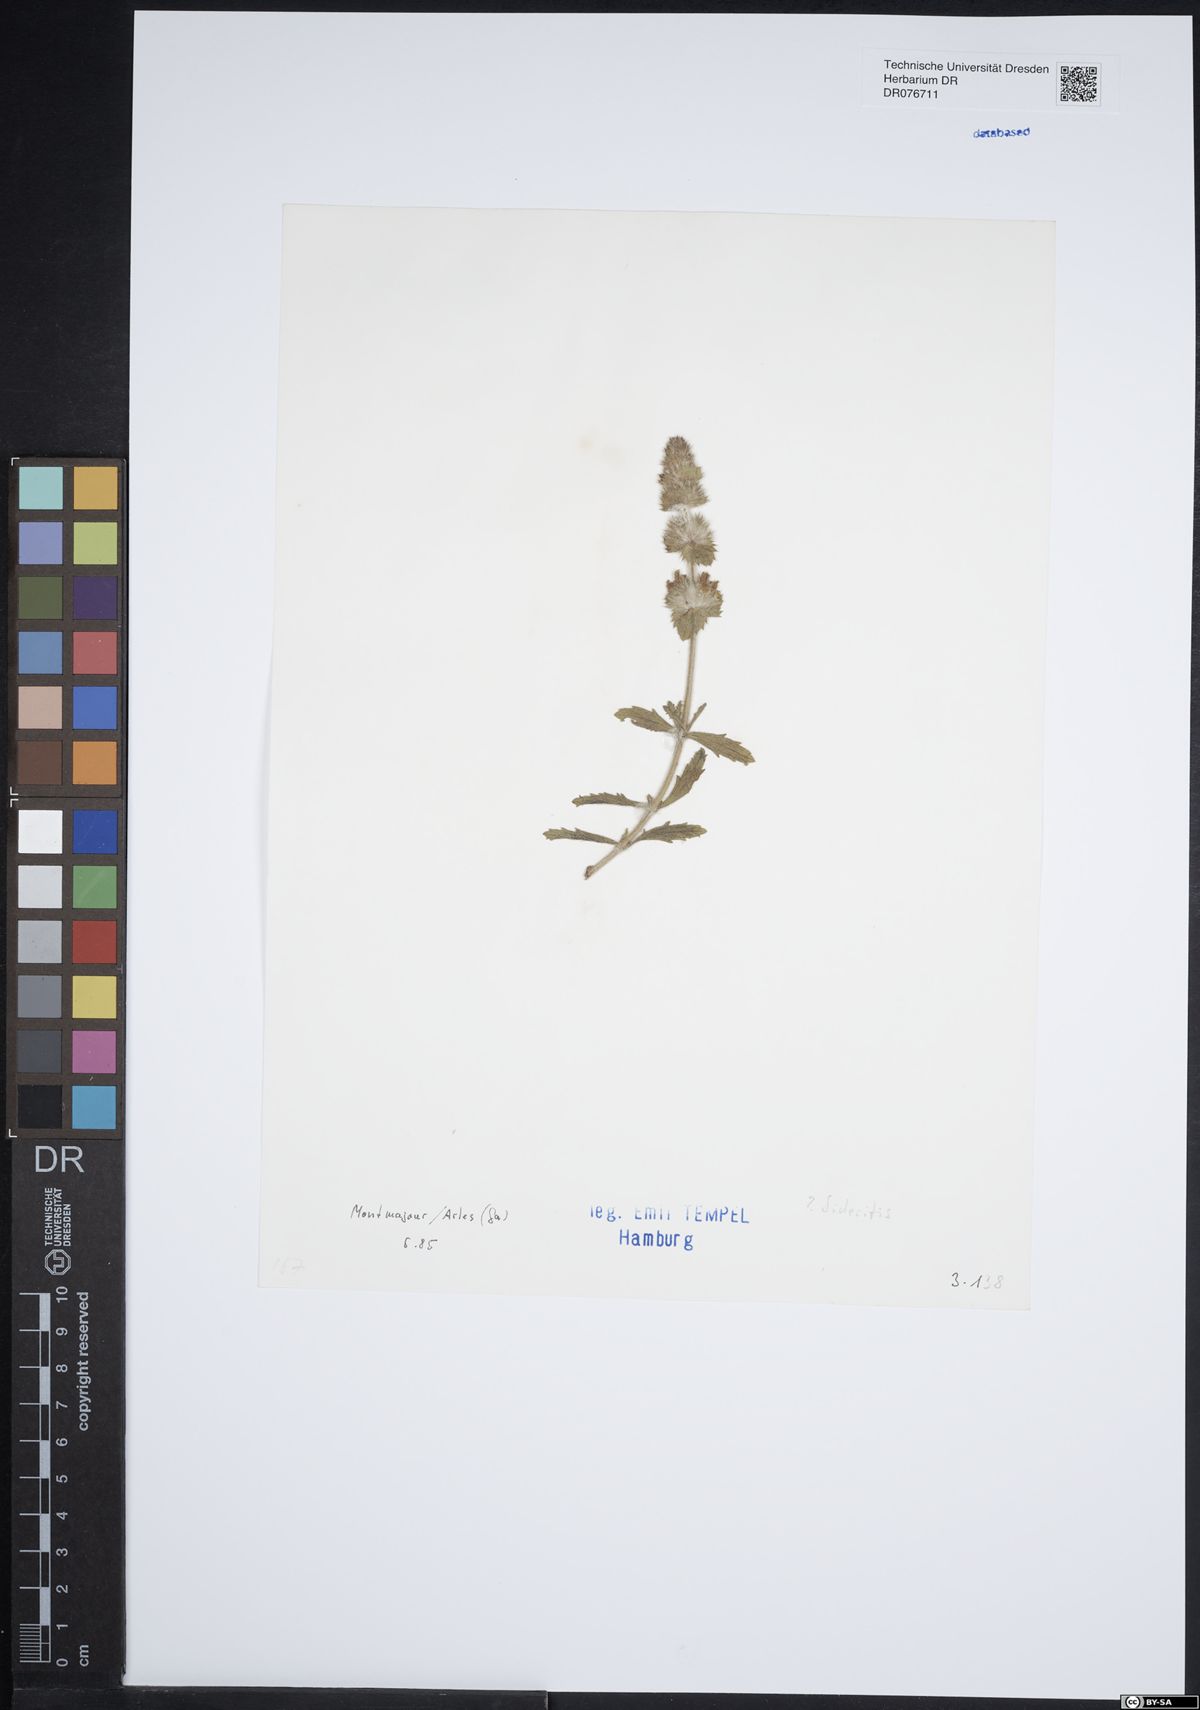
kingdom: Plantae
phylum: Tracheophyta
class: Magnoliopsida
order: Lamiales
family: Lamiaceae
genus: Sideritis
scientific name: Sideritis
